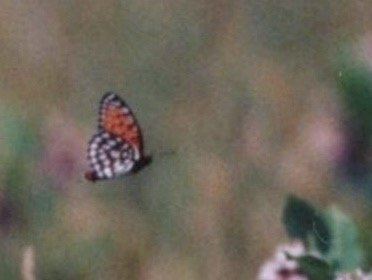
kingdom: Animalia
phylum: Arthropoda
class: Insecta
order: Lepidoptera
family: Nymphalidae
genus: Speyeria
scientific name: Speyeria idalia
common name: Regal Fritillary
